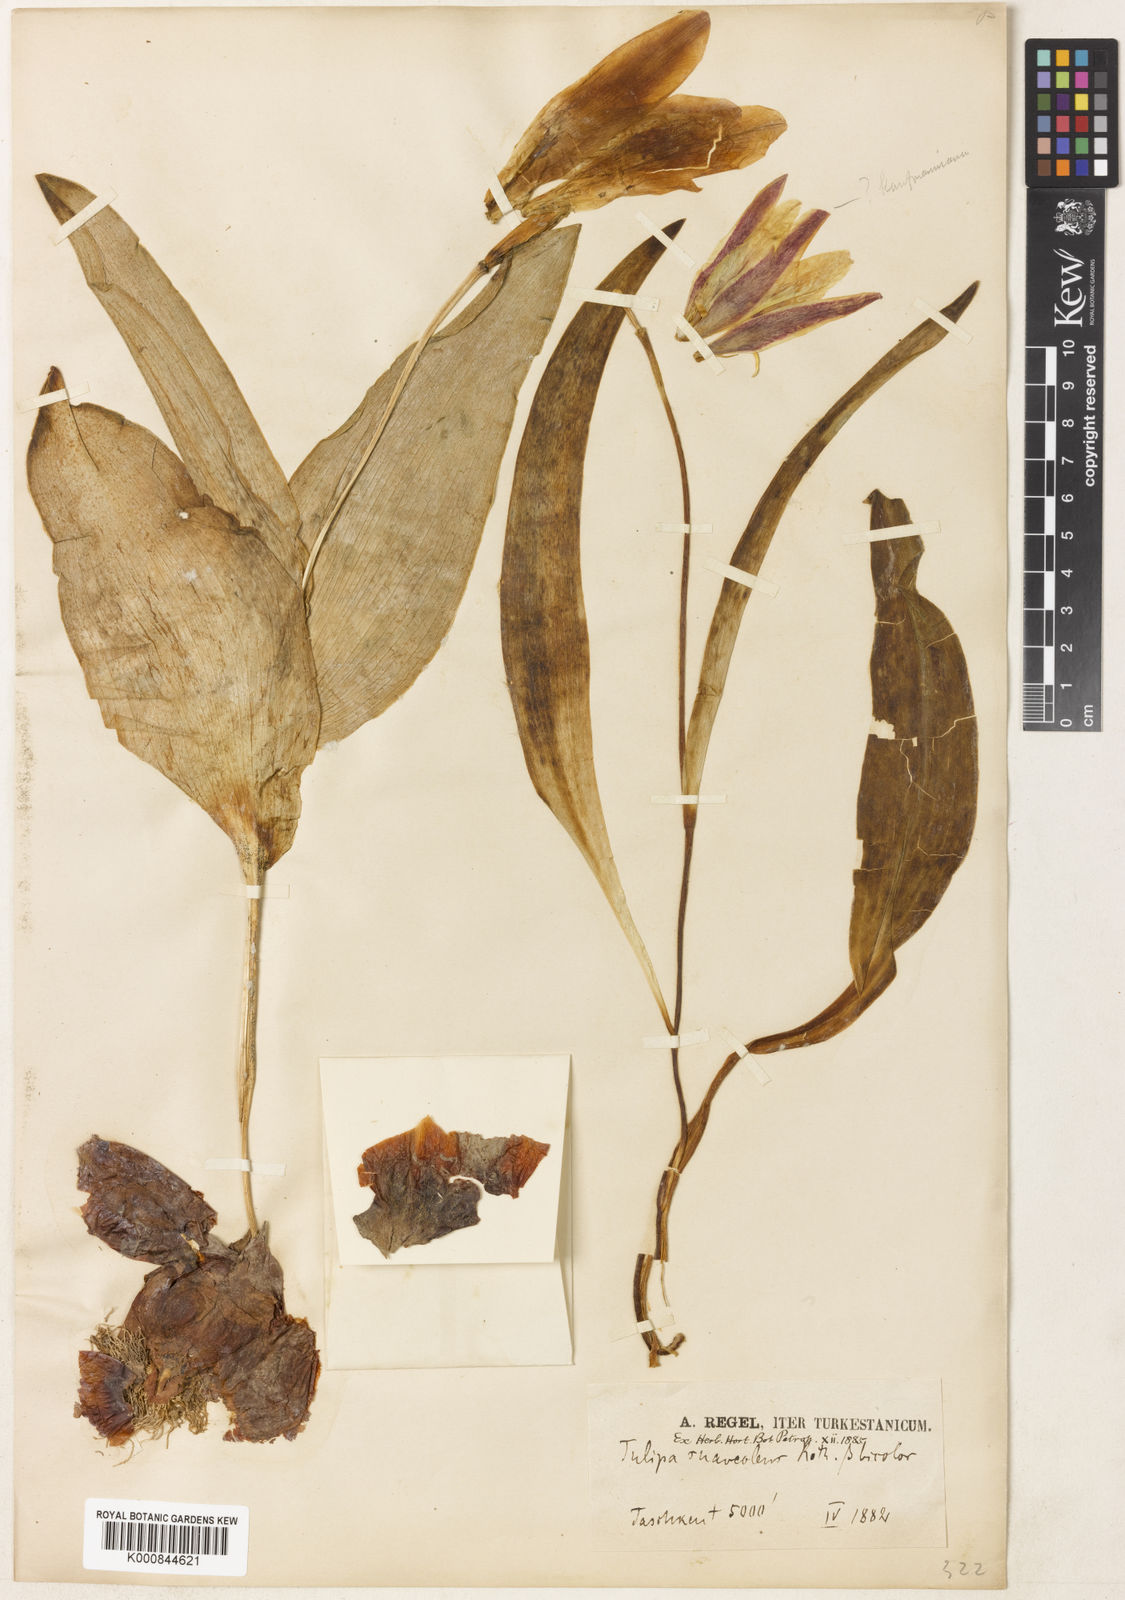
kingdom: Plantae
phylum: Tracheophyta
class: Liliopsida
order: Liliales
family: Liliaceae
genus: Tulipa
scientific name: Tulipa kaufmanniana
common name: Water-lily tulip
